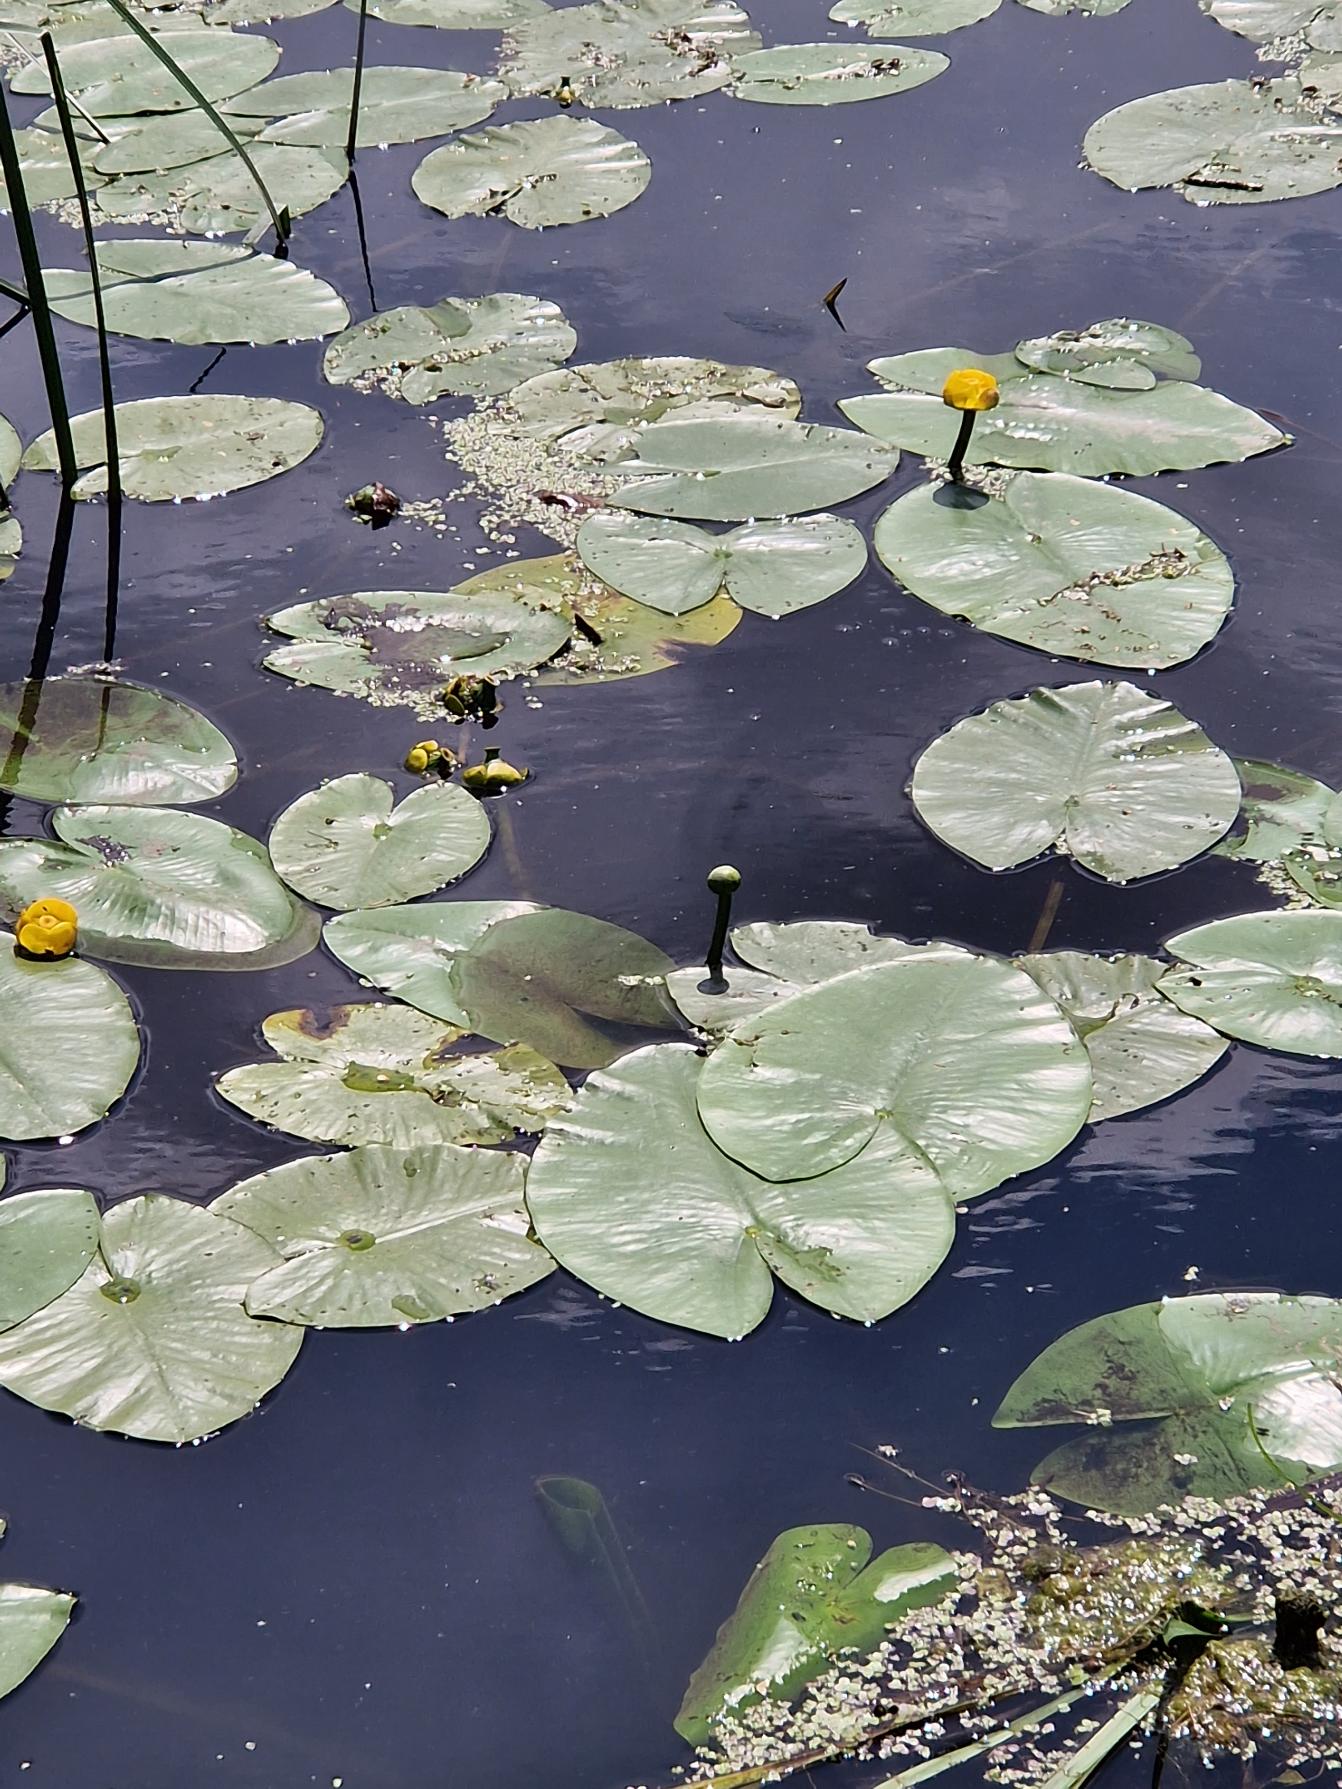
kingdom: Plantae
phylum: Tracheophyta
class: Magnoliopsida
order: Nymphaeales
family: Nymphaeaceae
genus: Nuphar
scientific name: Nuphar lutea
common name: Gul åkande
